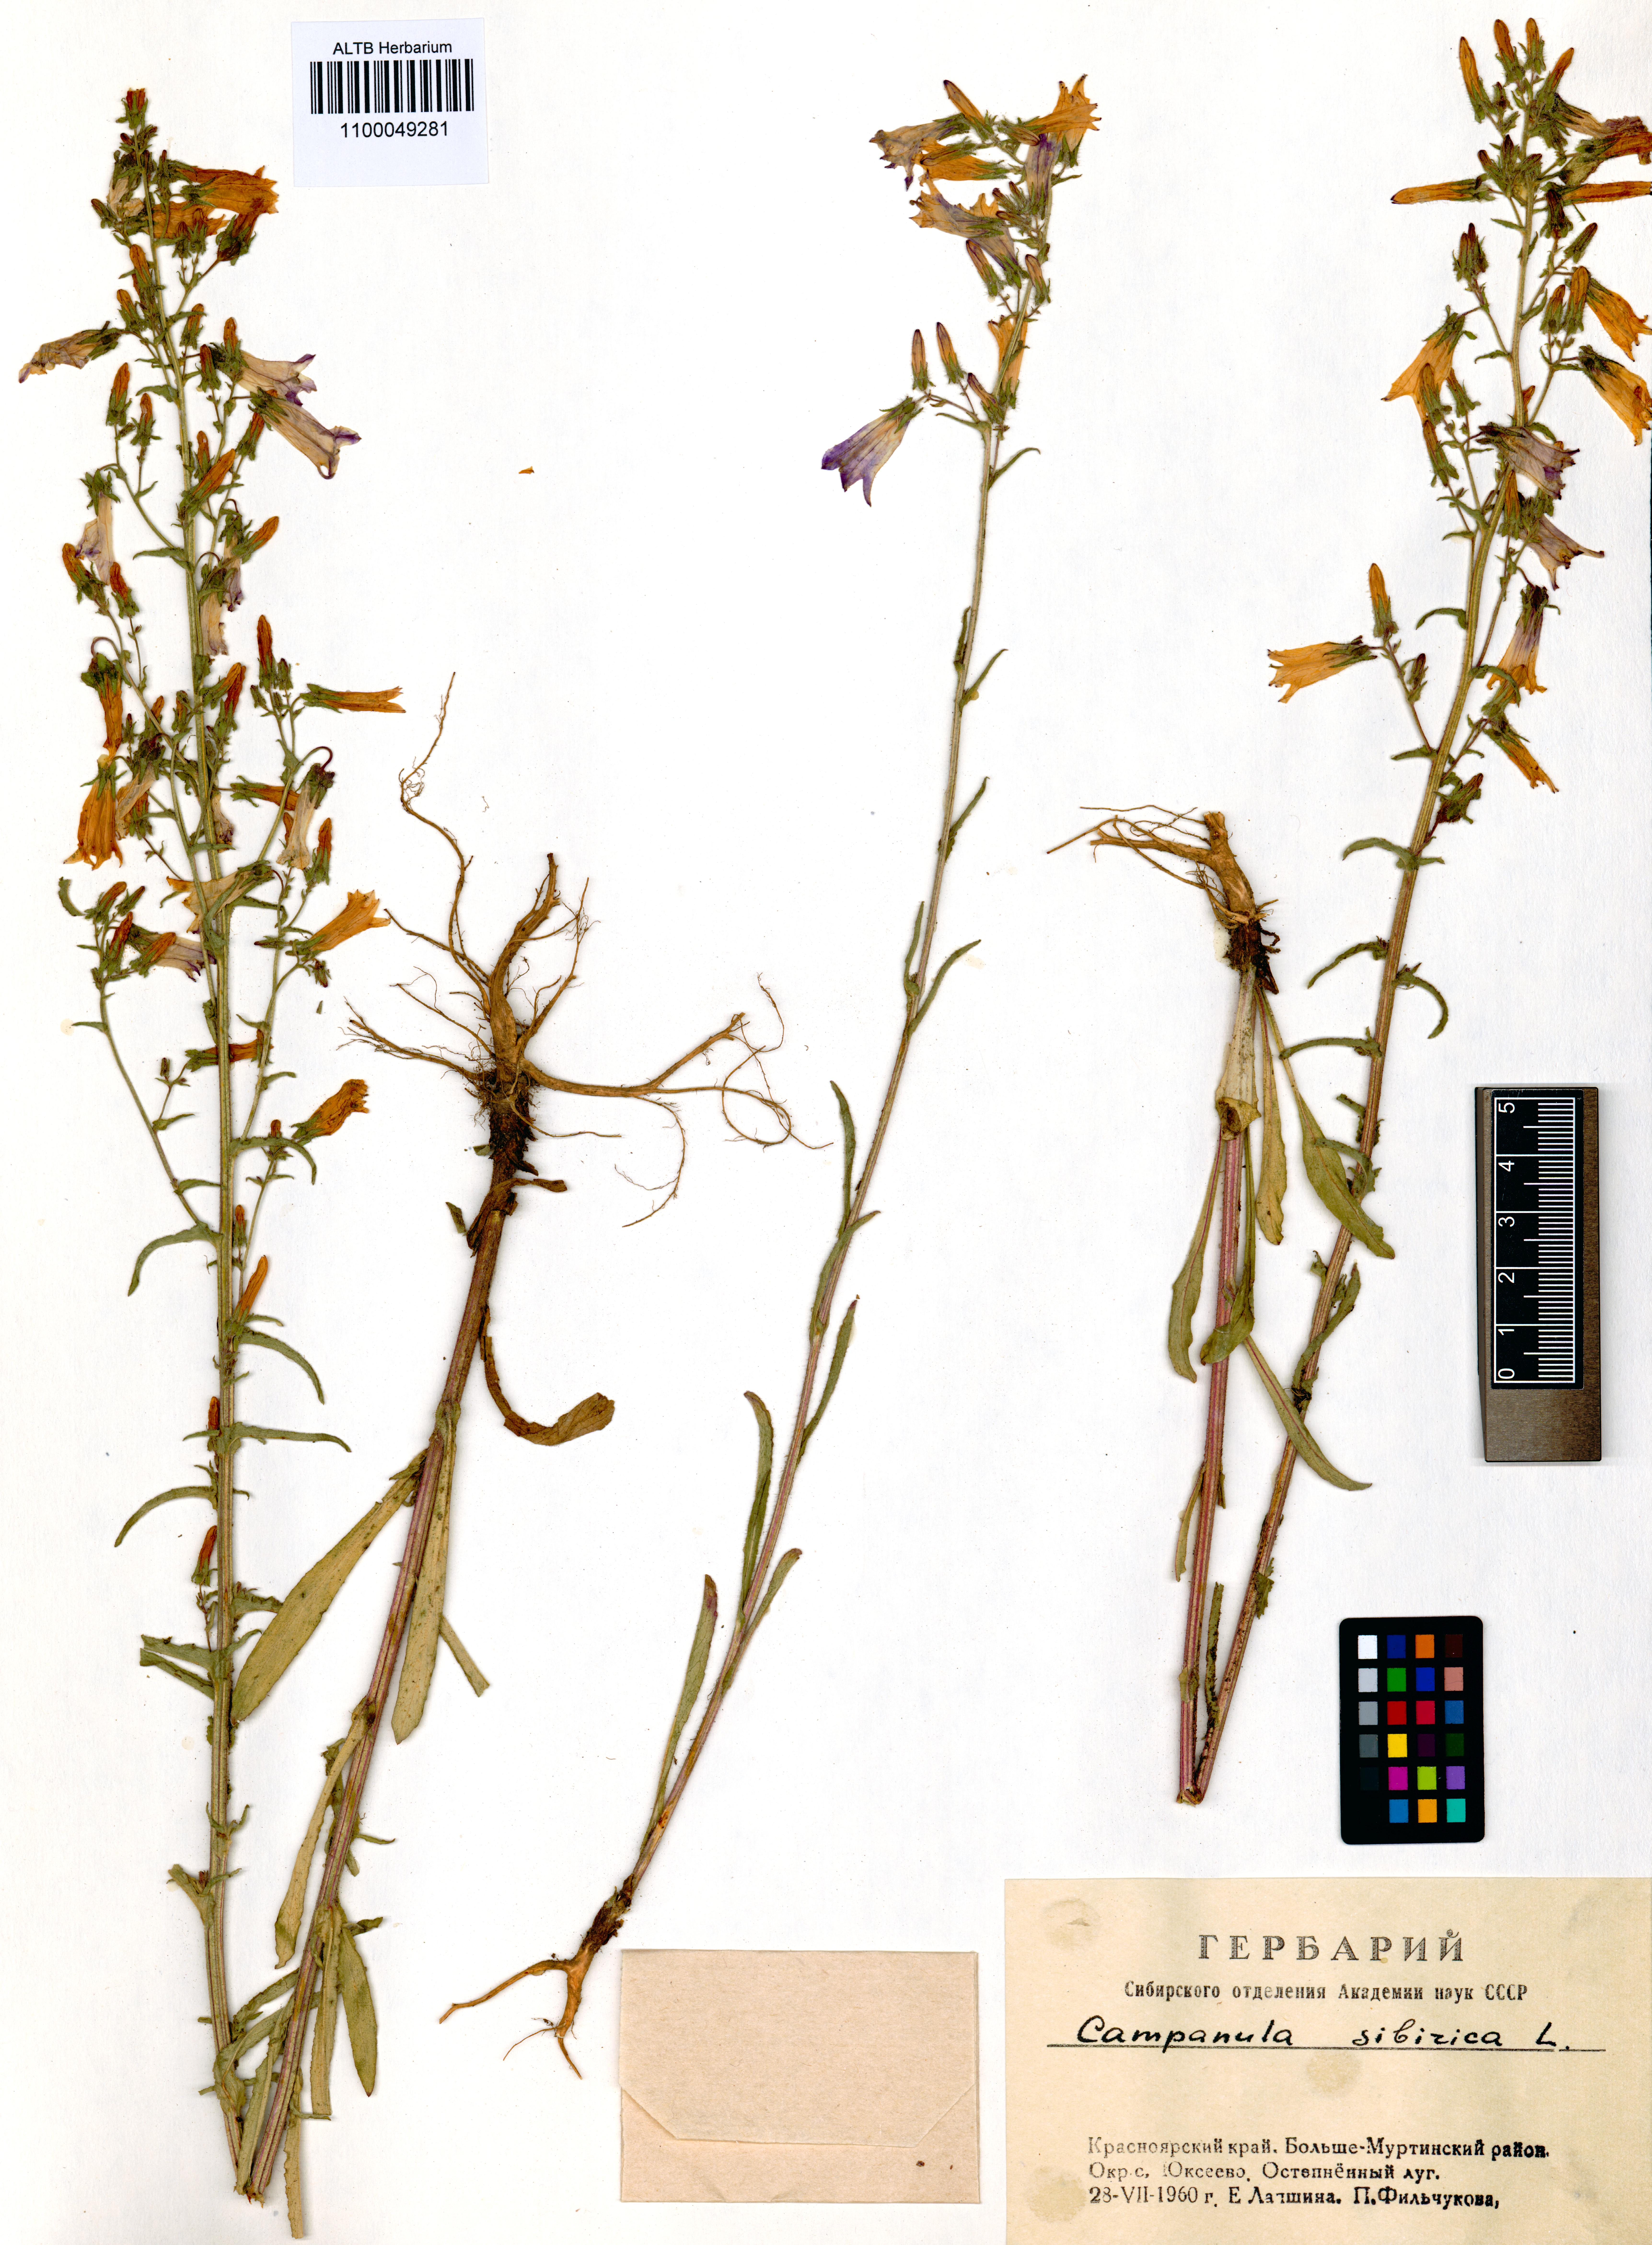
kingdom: Plantae
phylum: Tracheophyta
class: Magnoliopsida
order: Asterales
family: Campanulaceae
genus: Campanula
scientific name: Campanula sibirica
